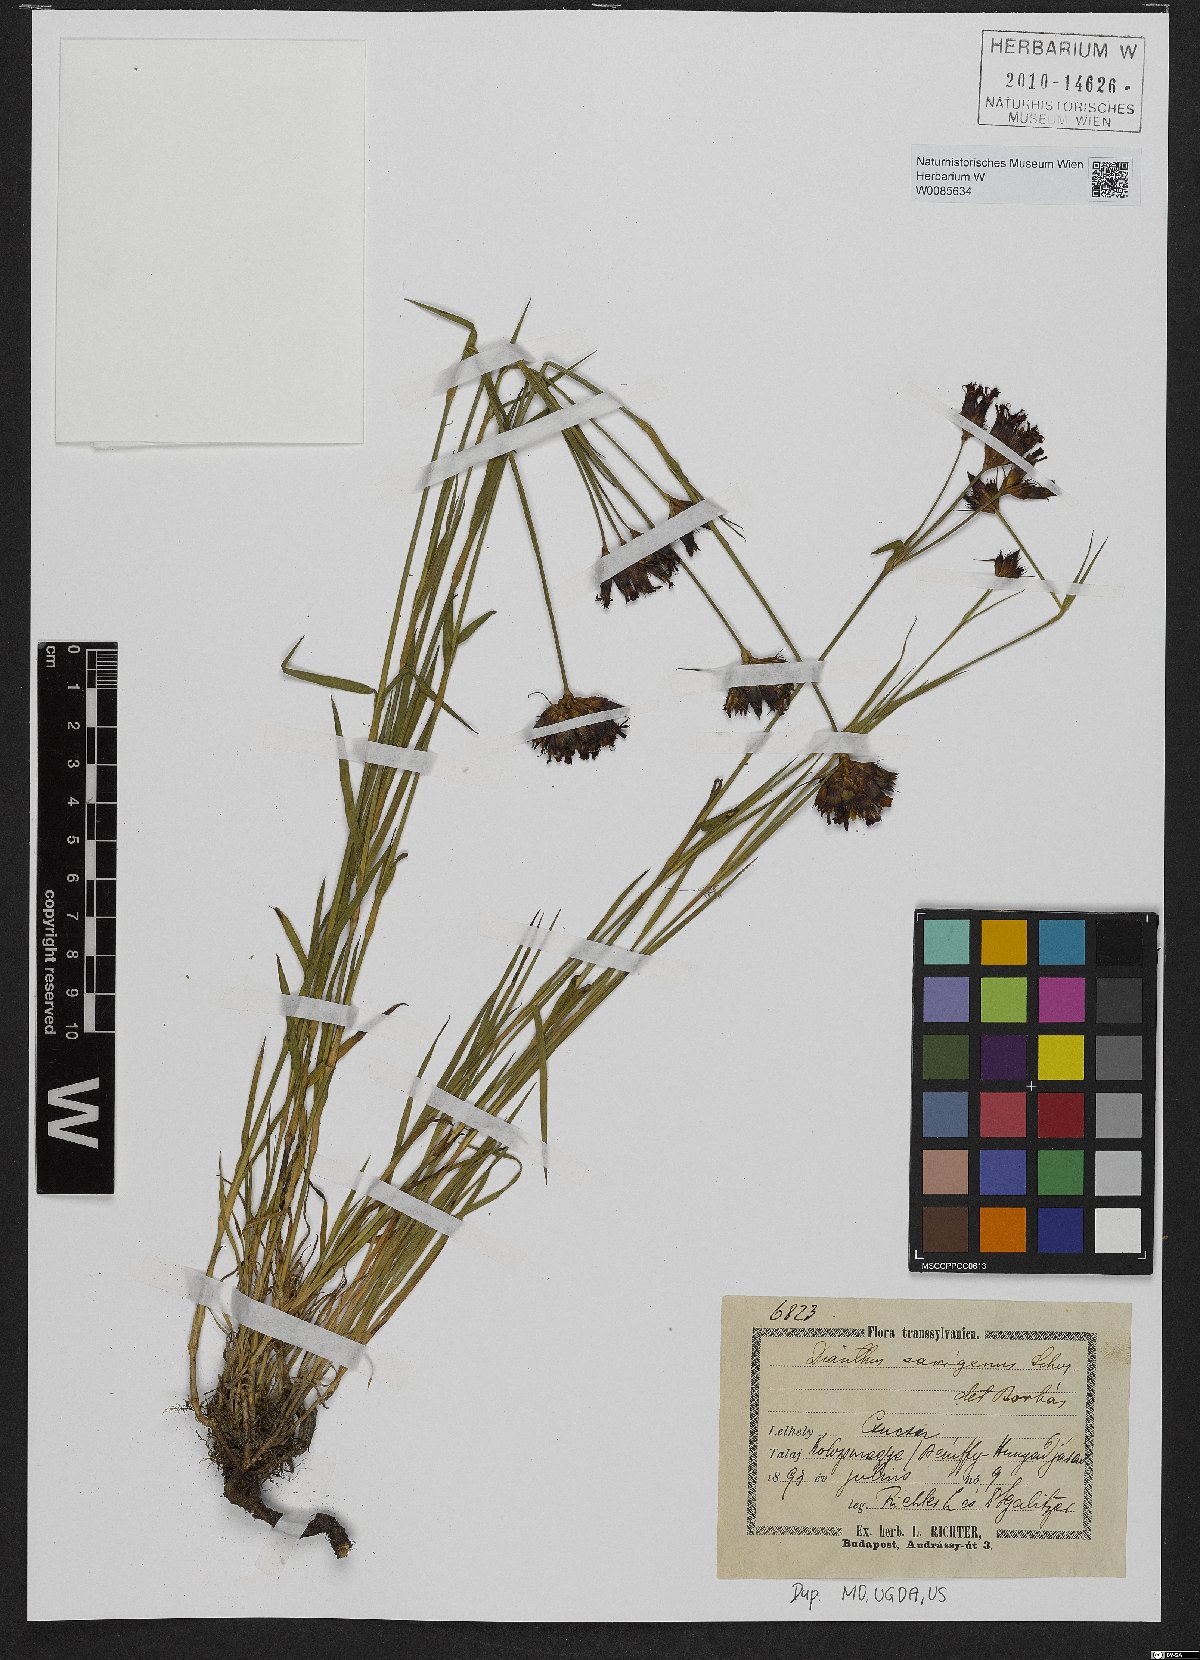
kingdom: Plantae
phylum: Tracheophyta
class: Magnoliopsida
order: Caryophyllales
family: Caryophyllaceae
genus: Dianthus
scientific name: Dianthus
